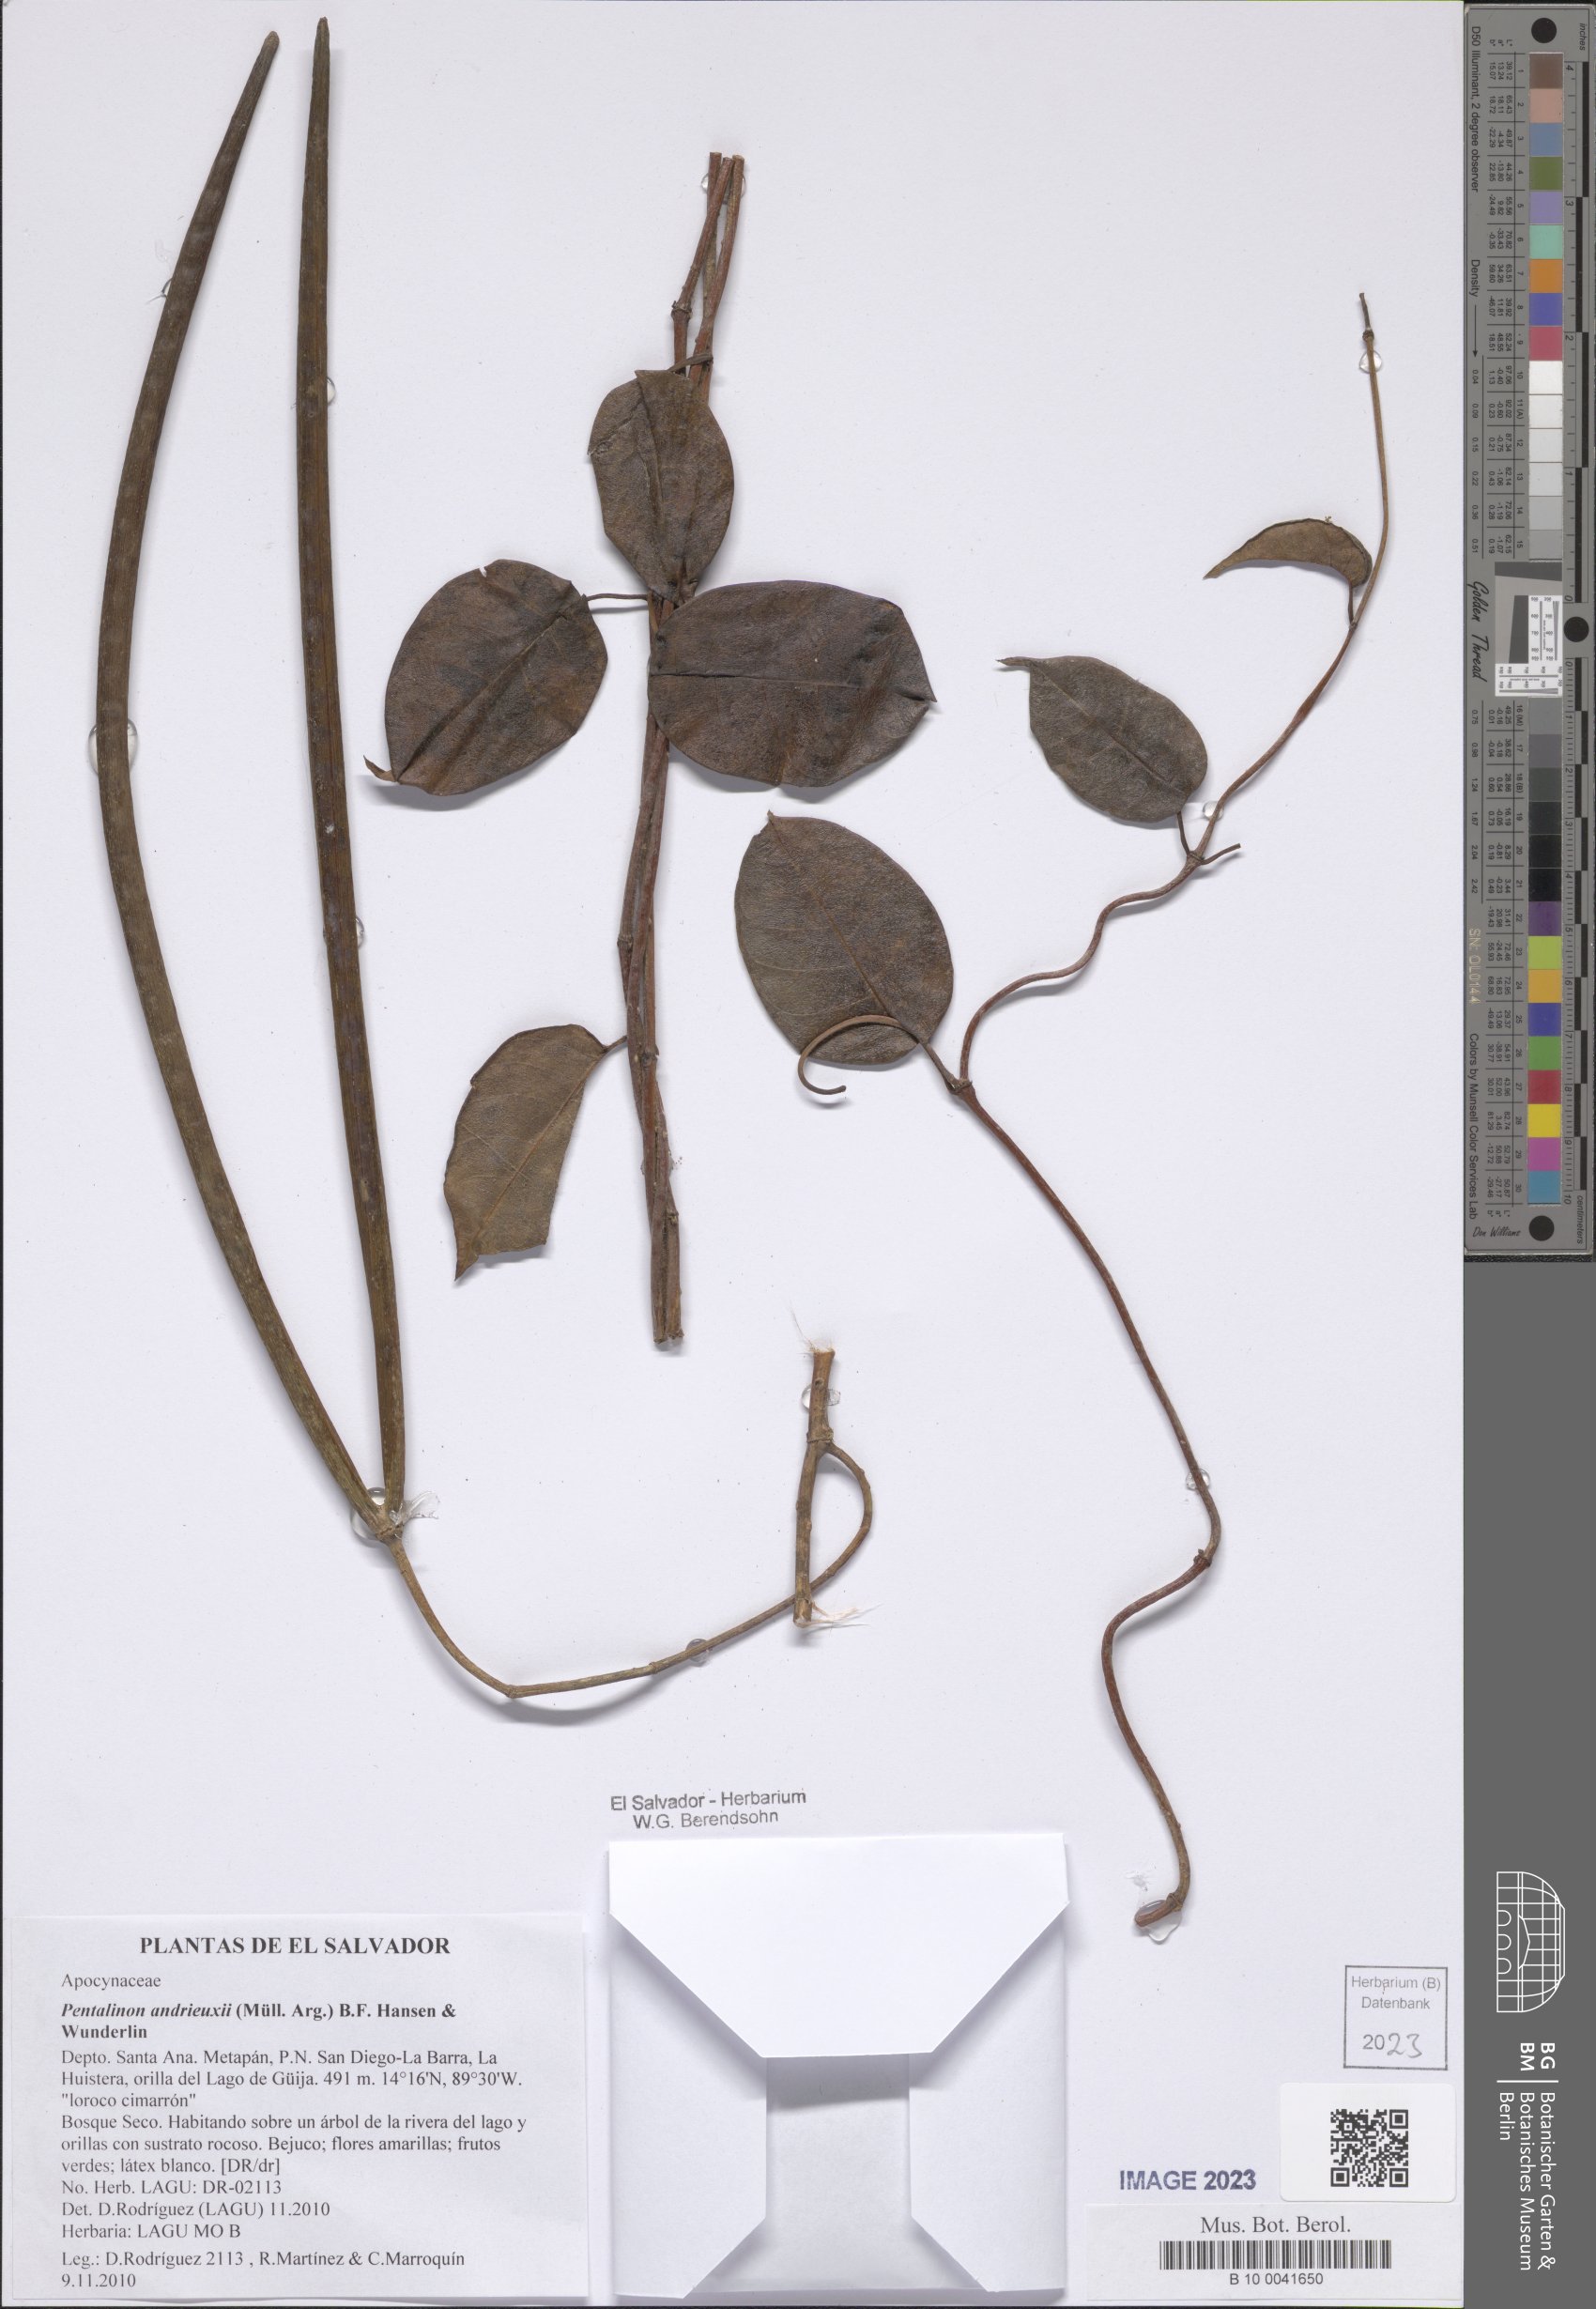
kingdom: Plantae
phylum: Tracheophyta
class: Magnoliopsida
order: Gentianales
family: Apocynaceae
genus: Pentalinon
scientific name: Pentalinon andrieuxii
